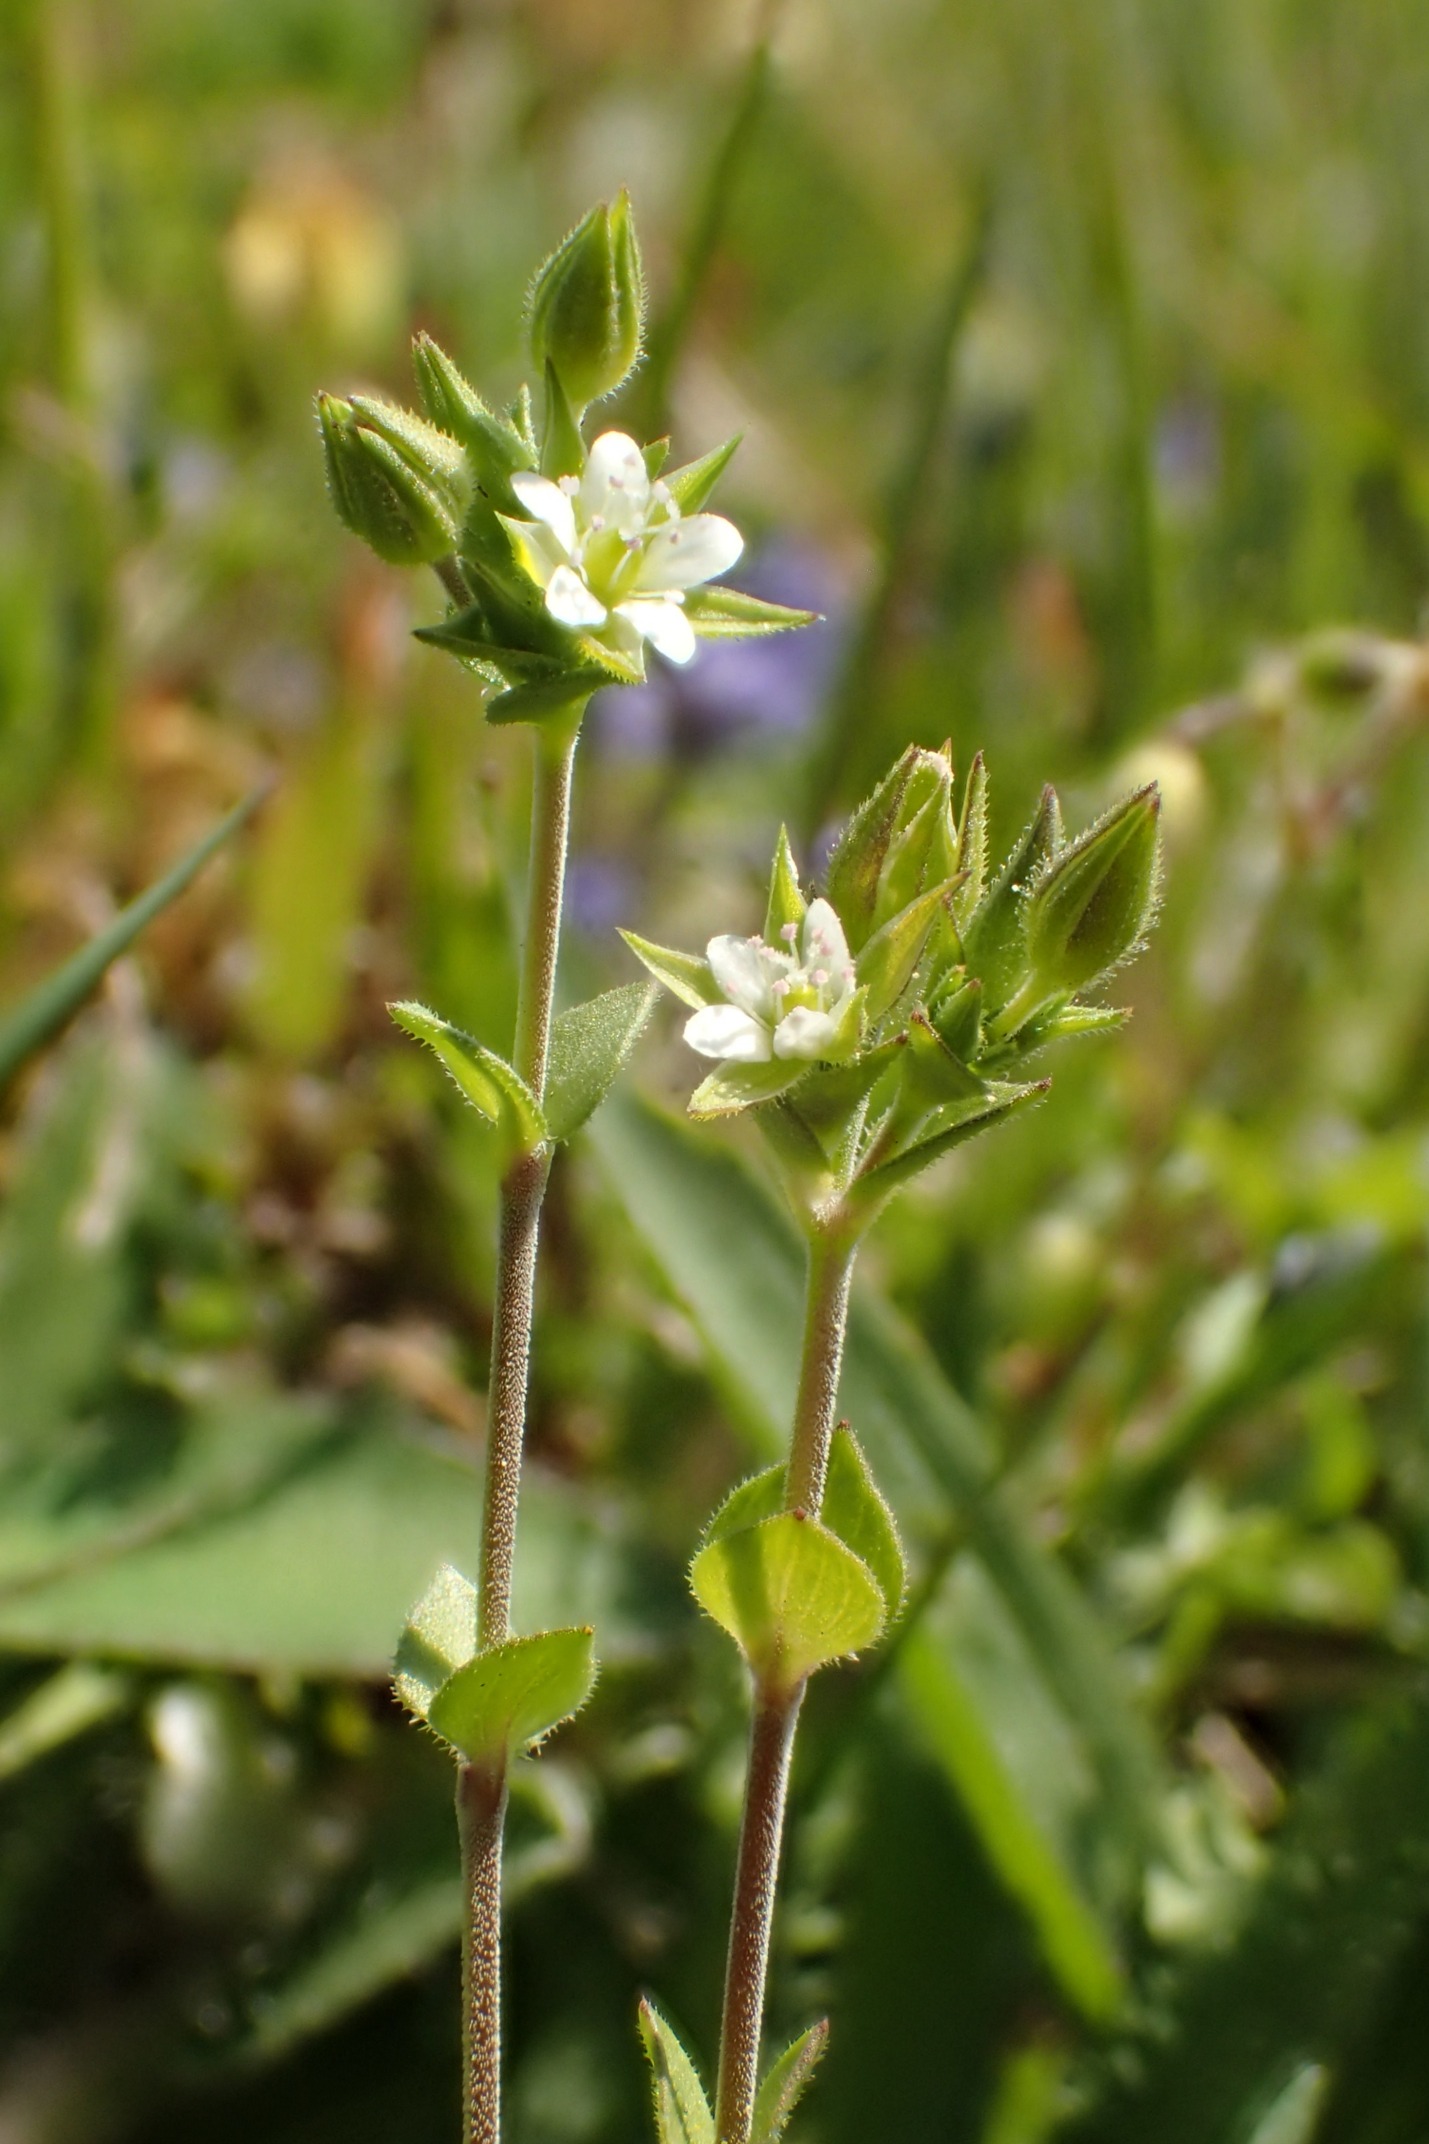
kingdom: Plantae
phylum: Tracheophyta
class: Magnoliopsida
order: Caryophyllales
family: Caryophyllaceae
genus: Arenaria
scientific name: Arenaria serpyllifolia
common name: Almindelig markarve
